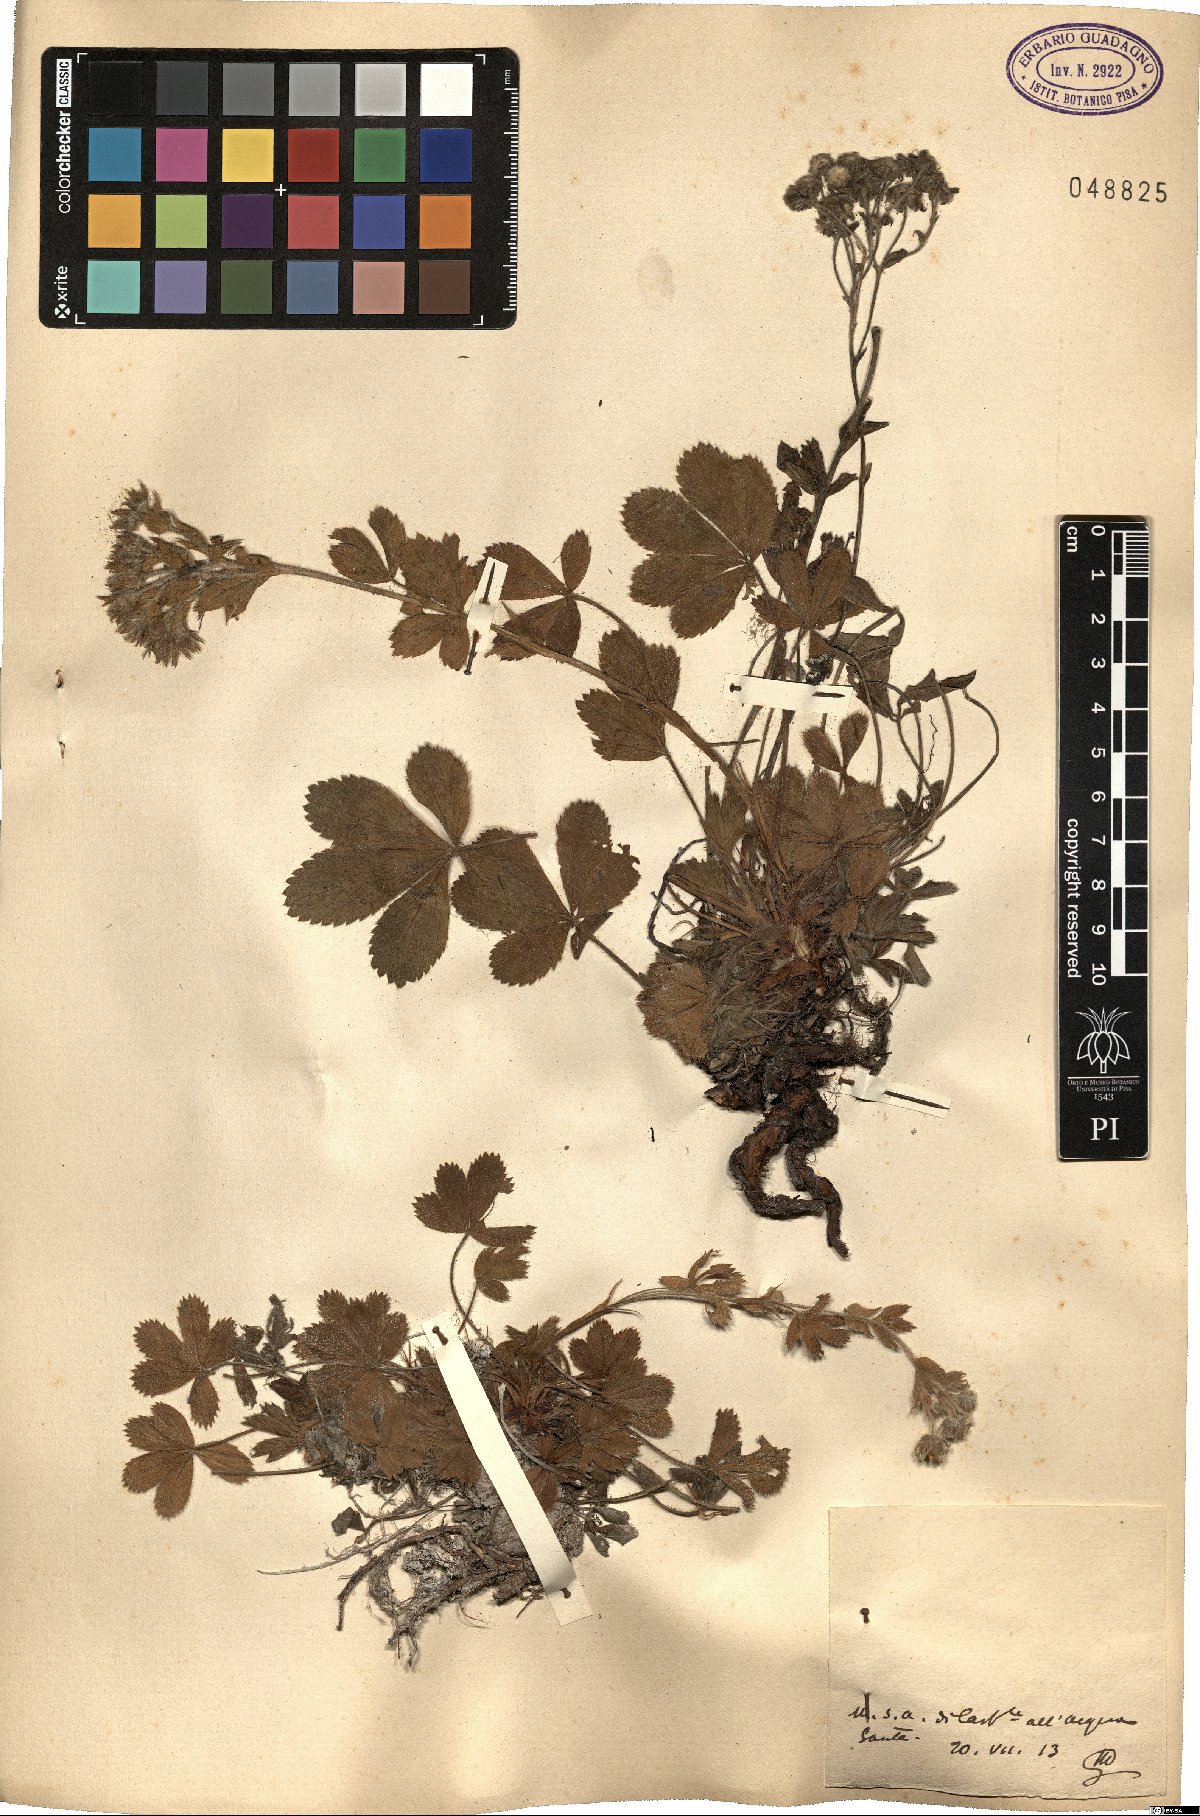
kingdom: Plantae
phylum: Tracheophyta
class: Magnoliopsida
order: Rosales
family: Rosaceae
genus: Potentilla
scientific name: Potentilla
